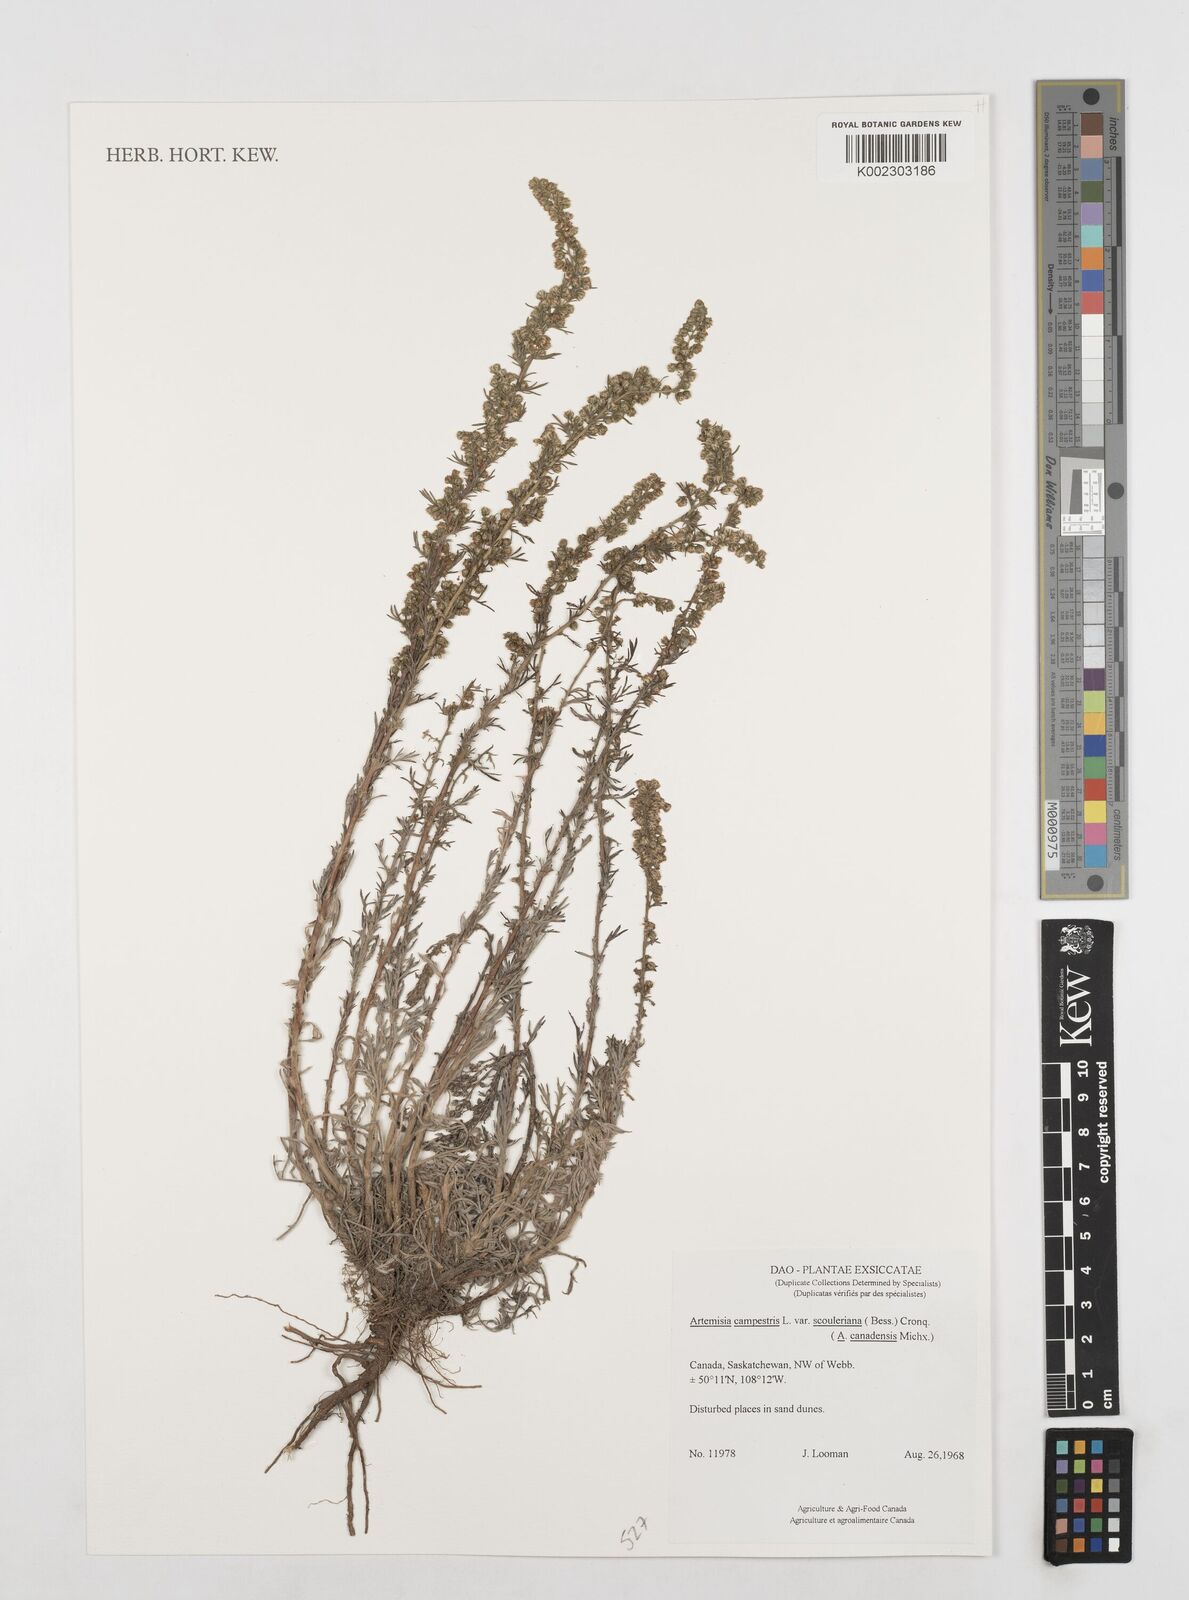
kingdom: Plantae
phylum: Tracheophyta
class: Magnoliopsida
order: Asterales
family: Asteraceae
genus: Artemisia
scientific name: Artemisia campestris
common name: Field wormwood
